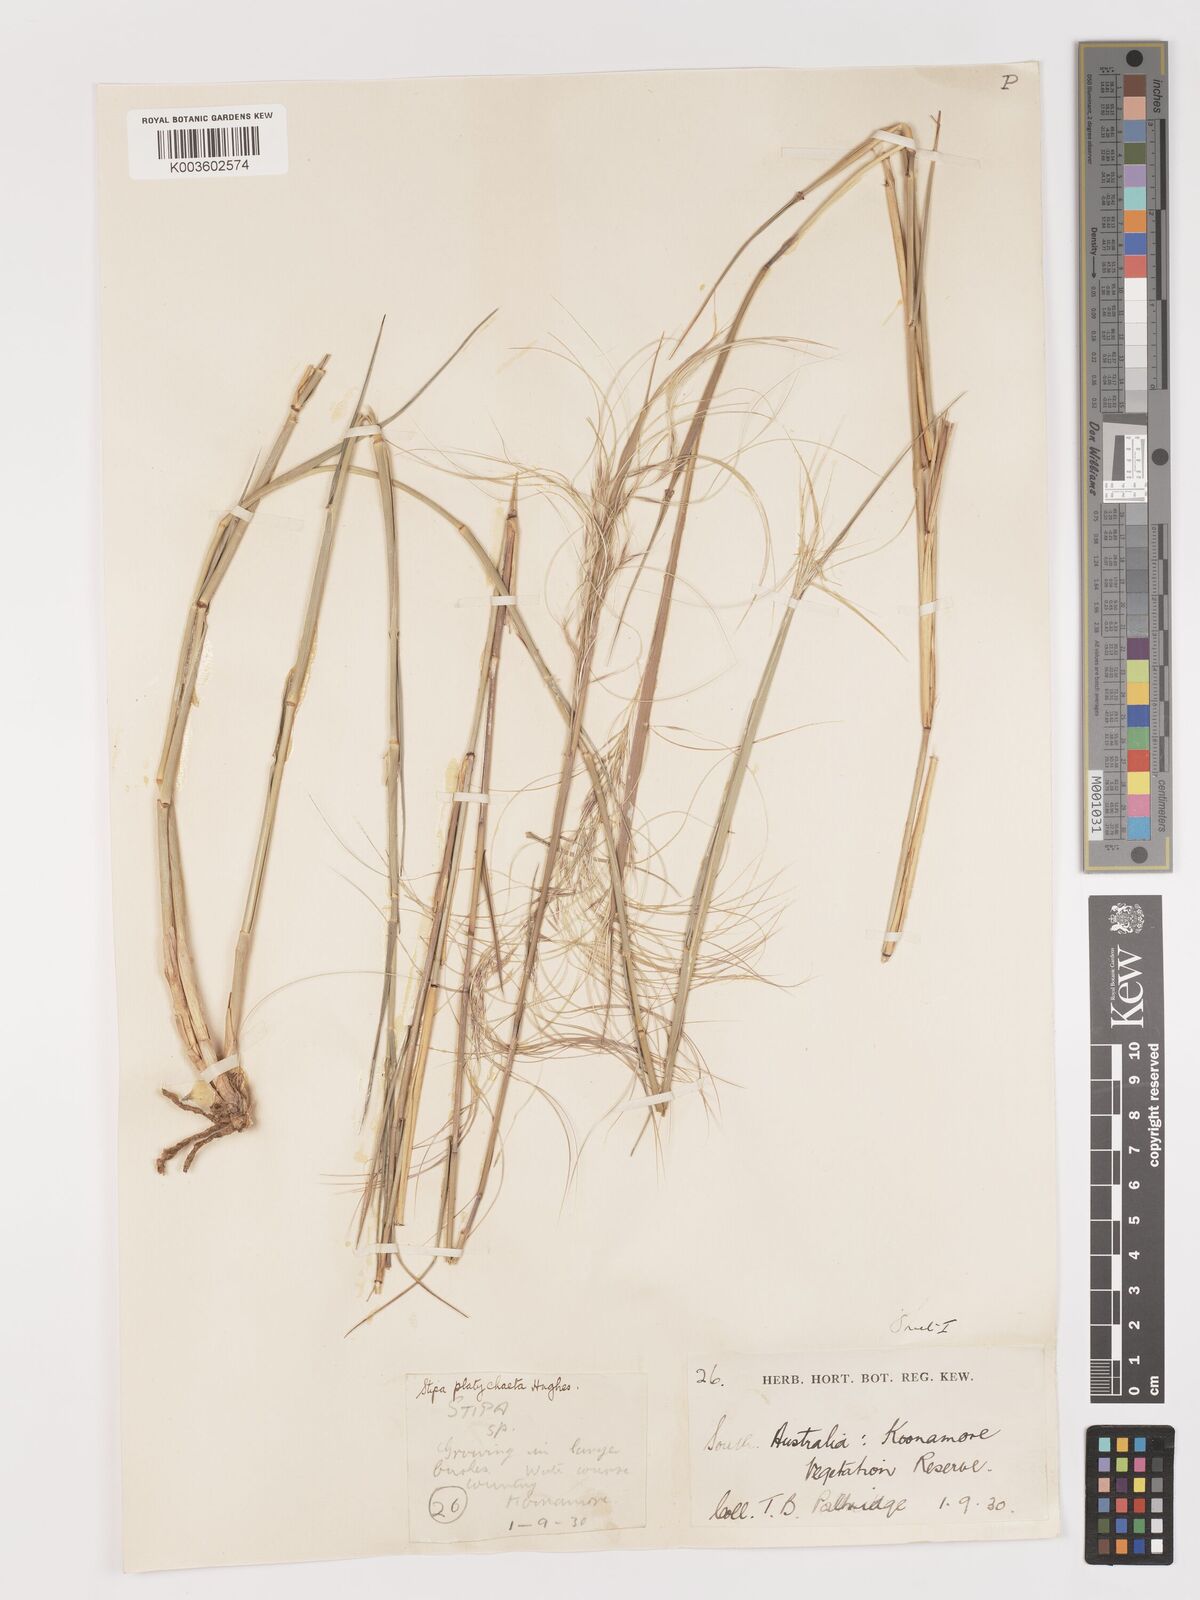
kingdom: Plantae
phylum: Tracheophyta
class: Liliopsida
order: Poales
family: Poaceae
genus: Austrostipa
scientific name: Austrostipa platychaeta
